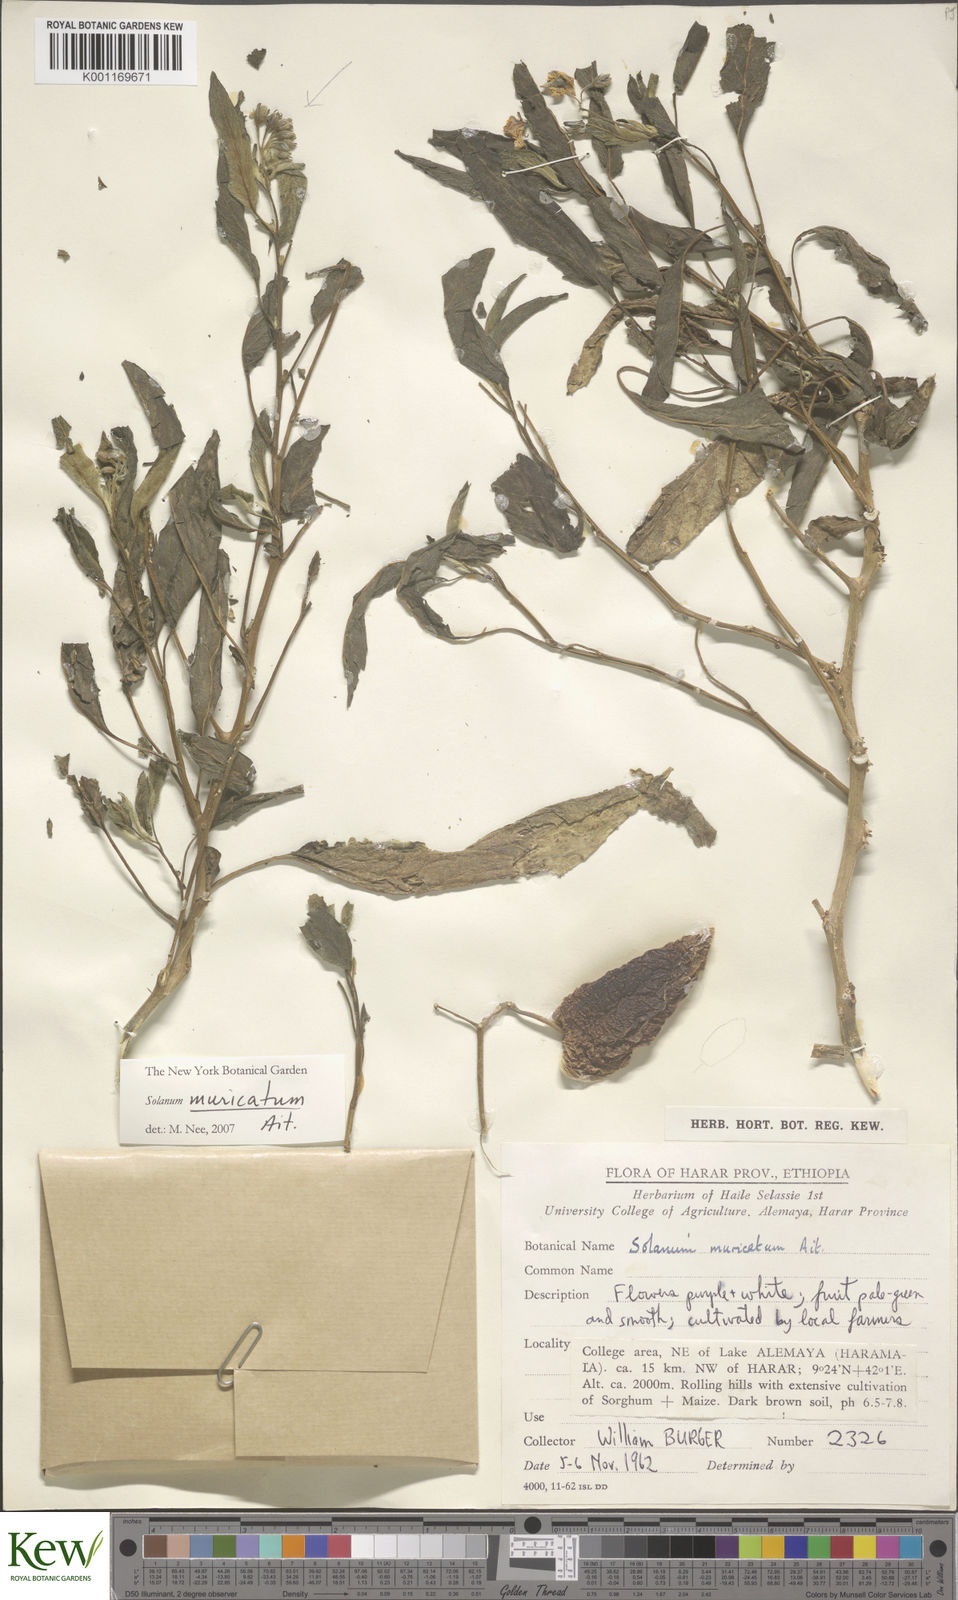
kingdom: Plantae
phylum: Tracheophyta
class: Magnoliopsida
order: Solanales
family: Solanaceae
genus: Solanum
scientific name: Solanum muricatum
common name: Peruvian pepino
